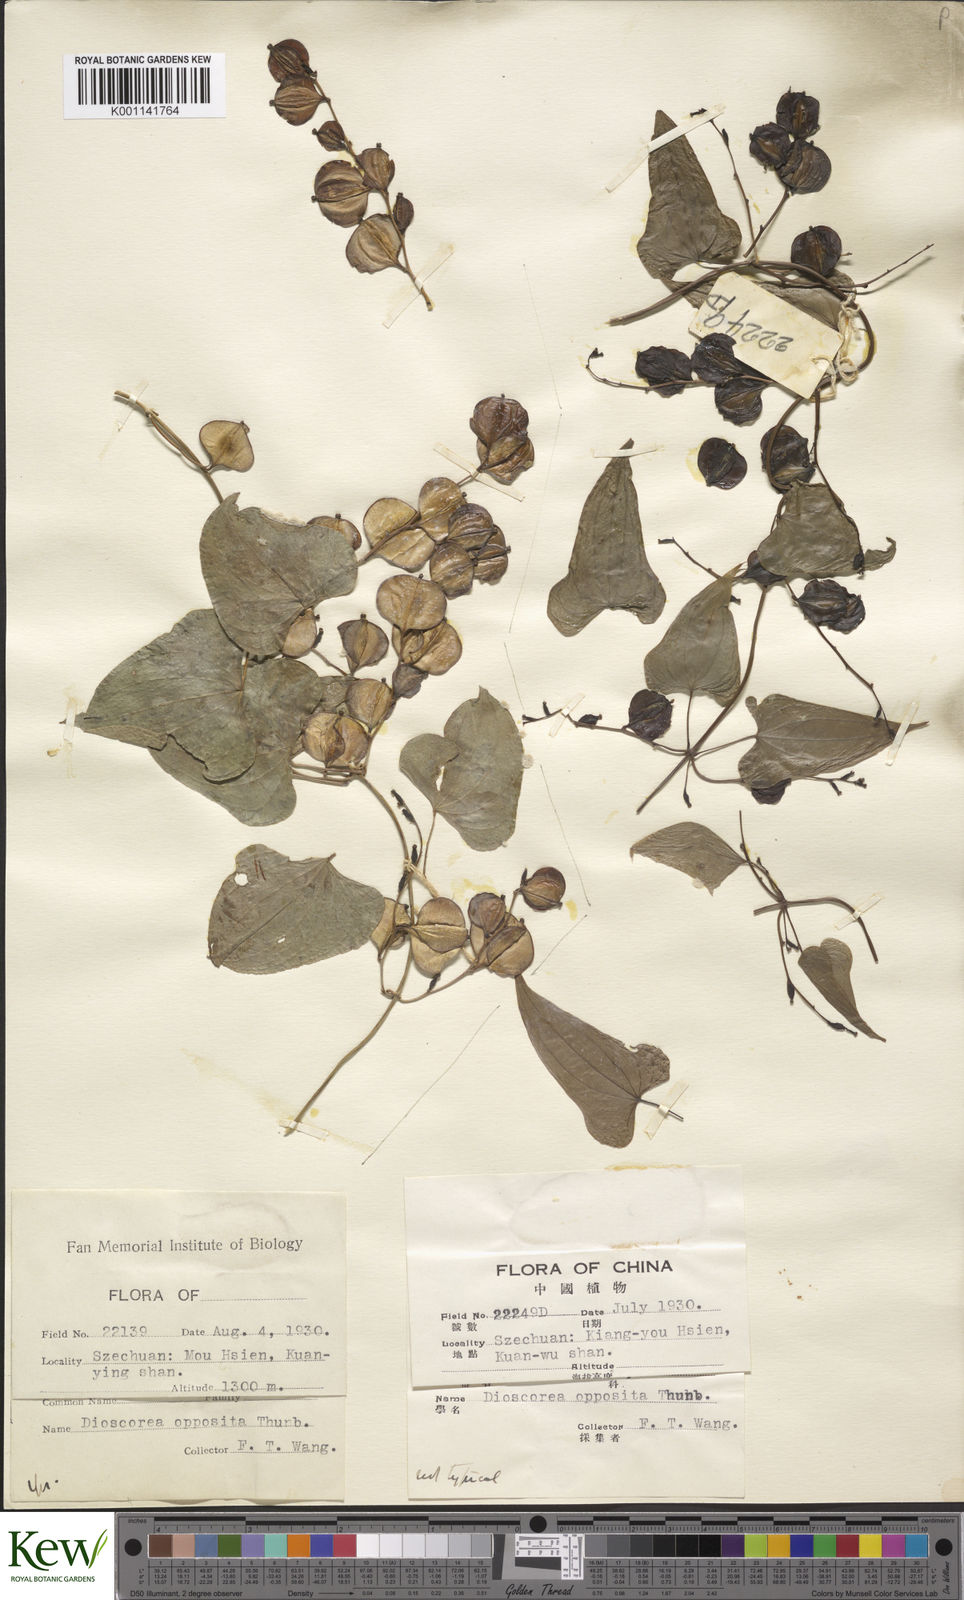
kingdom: Plantae
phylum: Tracheophyta
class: Liliopsida
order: Dioscoreales
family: Dioscoreaceae
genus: Dioscorea
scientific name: Dioscorea oppositifolia
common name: Chinese yam
